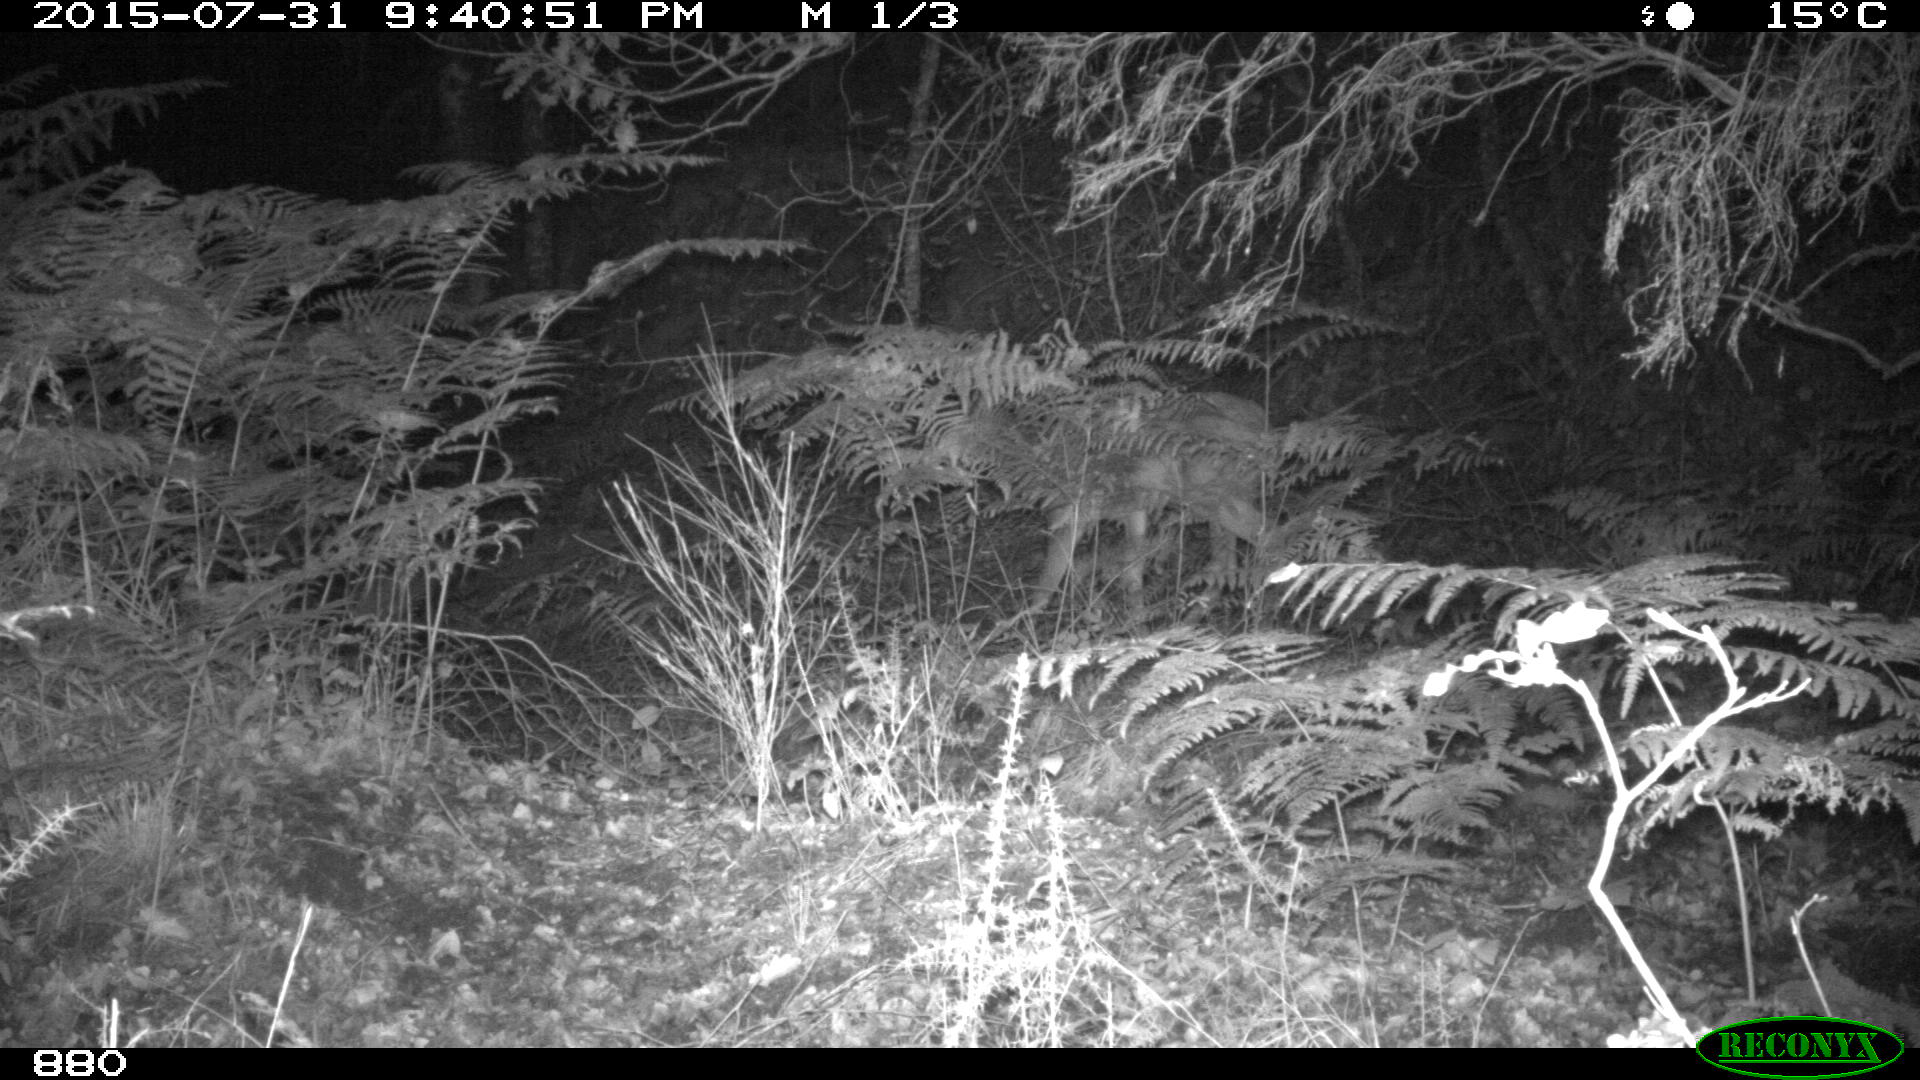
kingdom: Animalia
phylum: Chordata
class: Mammalia
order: Artiodactyla
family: Cervidae
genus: Capreolus
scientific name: Capreolus capreolus
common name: Western roe deer
